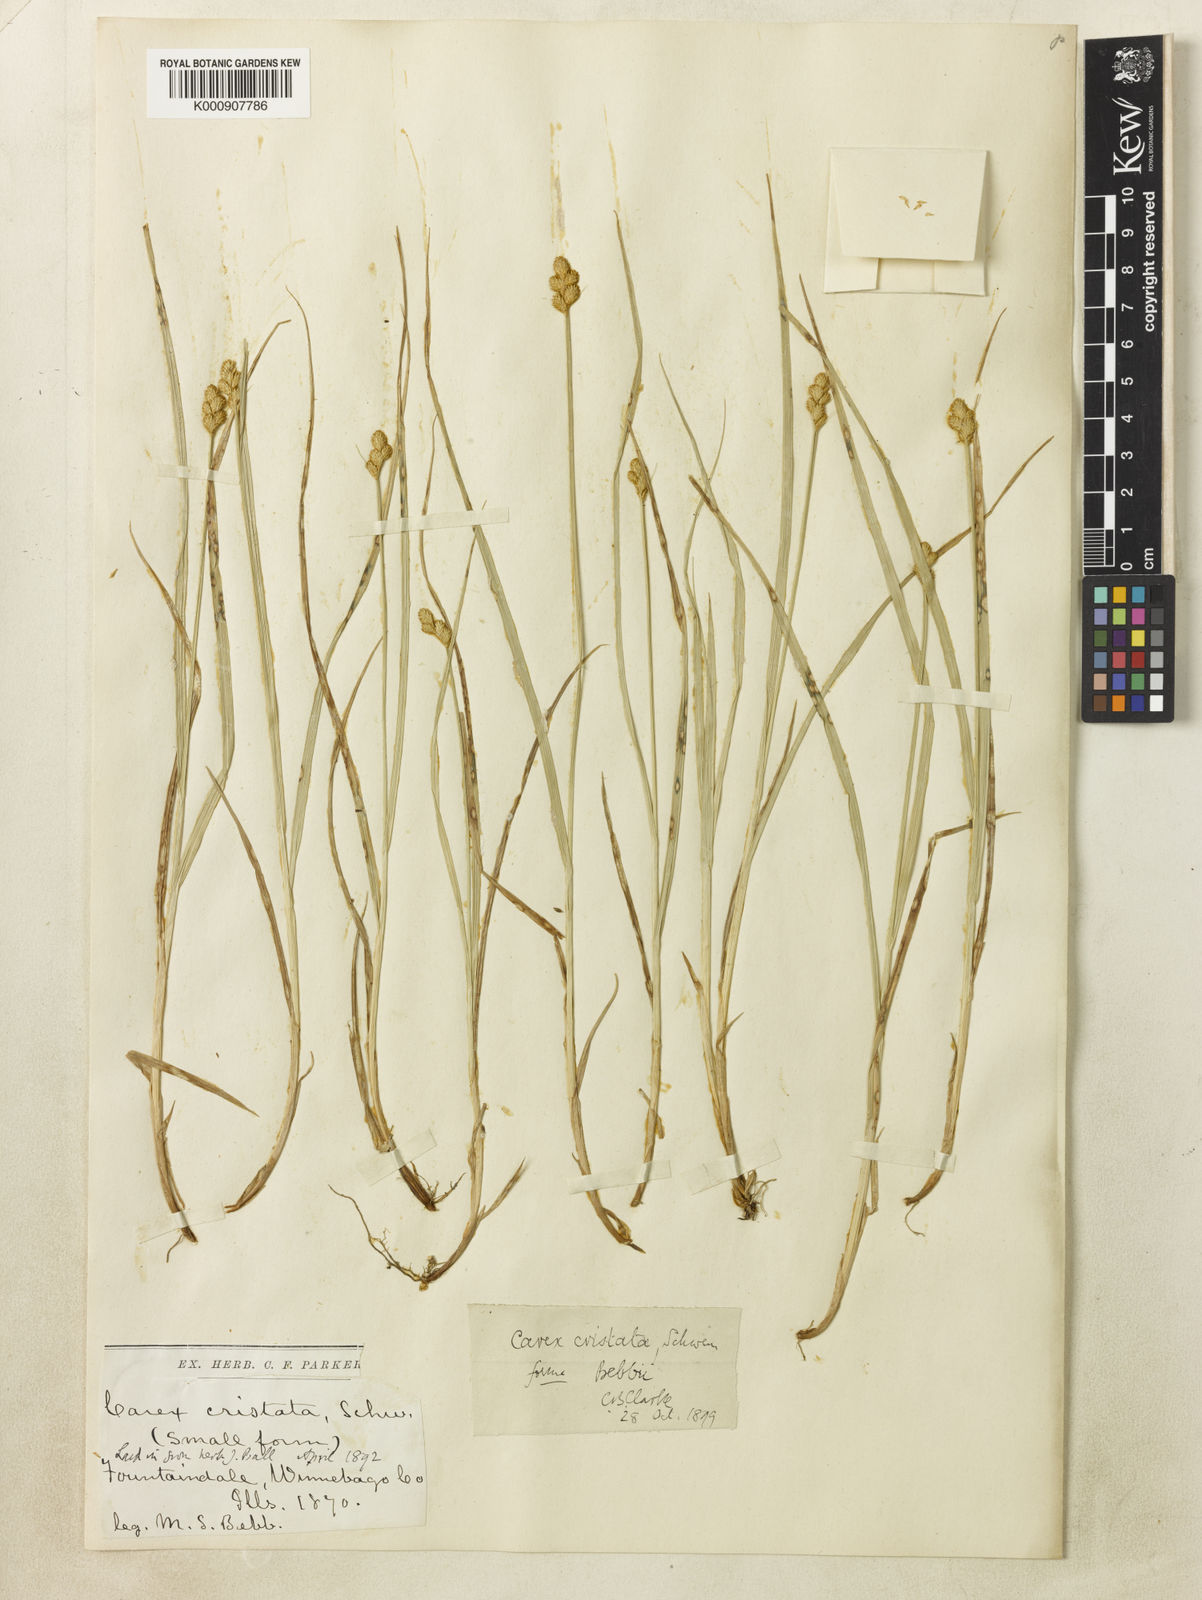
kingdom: Plantae
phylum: Tracheophyta
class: Liliopsida
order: Poales
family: Cyperaceae
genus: Carex
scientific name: Carex
